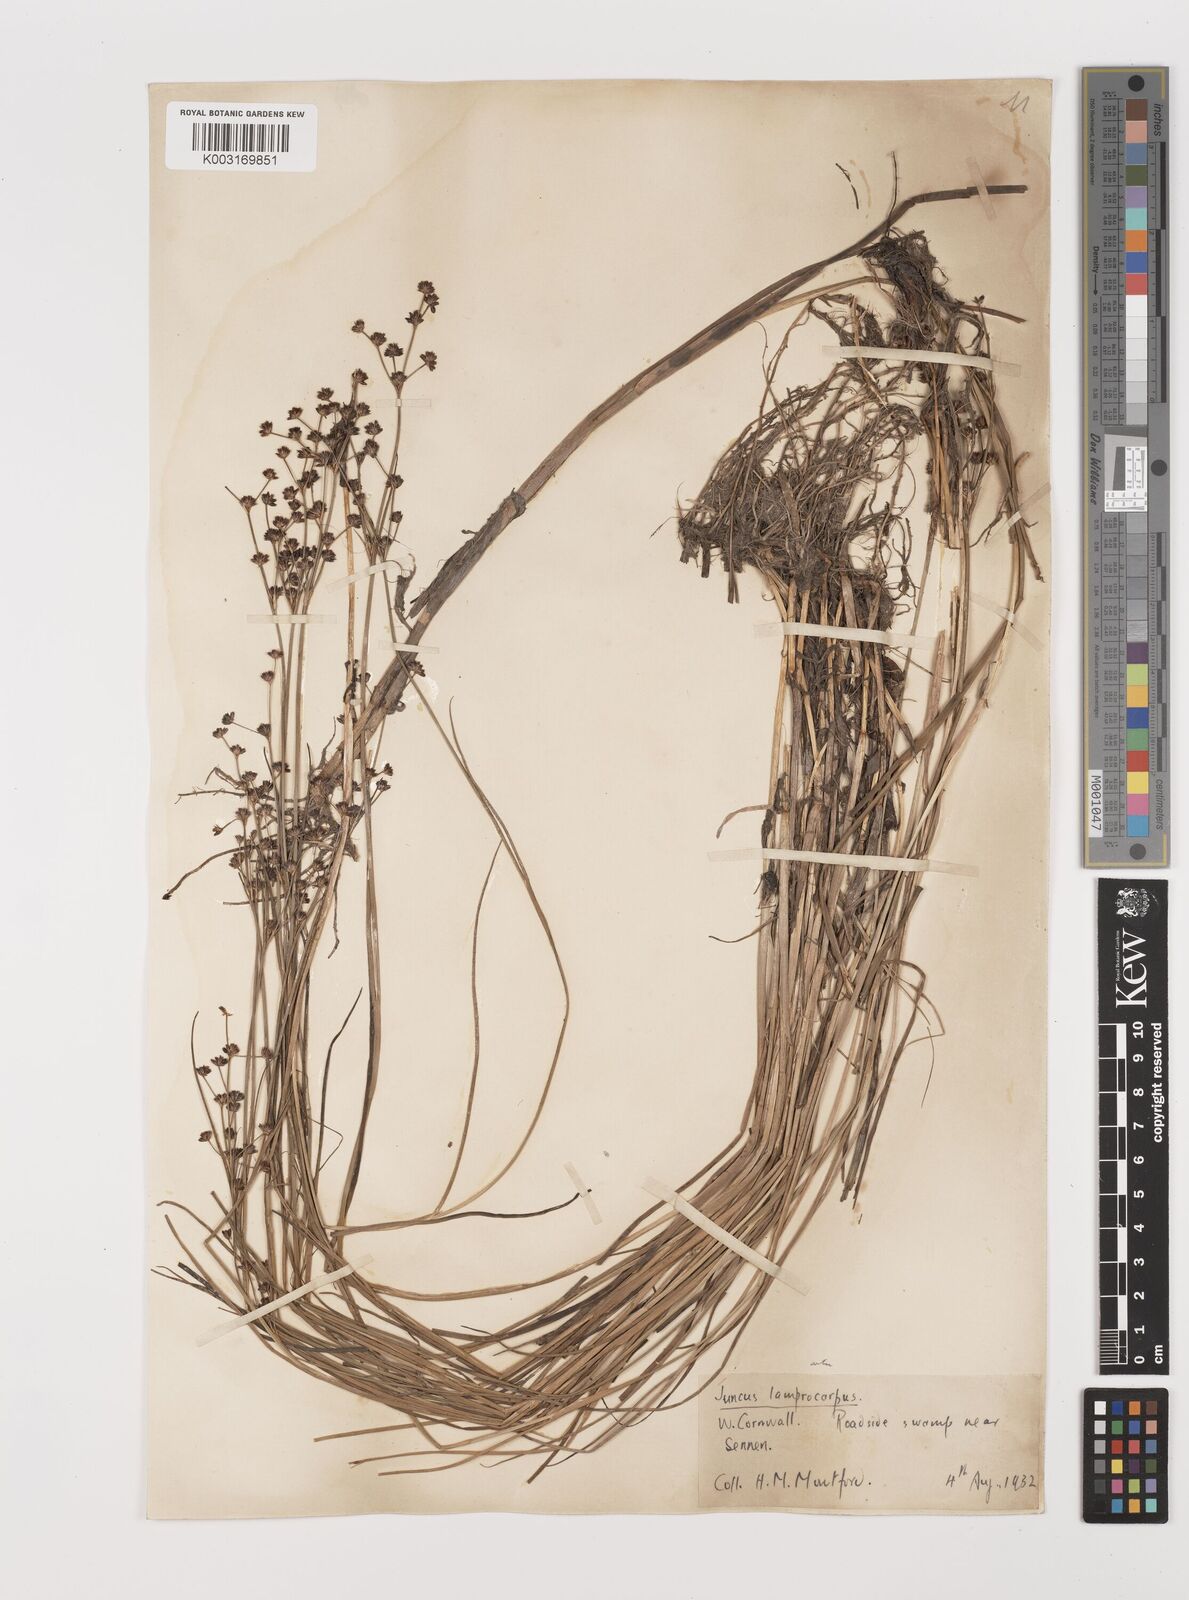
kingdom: Plantae
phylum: Tracheophyta
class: Liliopsida
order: Poales
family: Juncaceae
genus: Juncus
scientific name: Juncus articulatus
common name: Jointed rush
